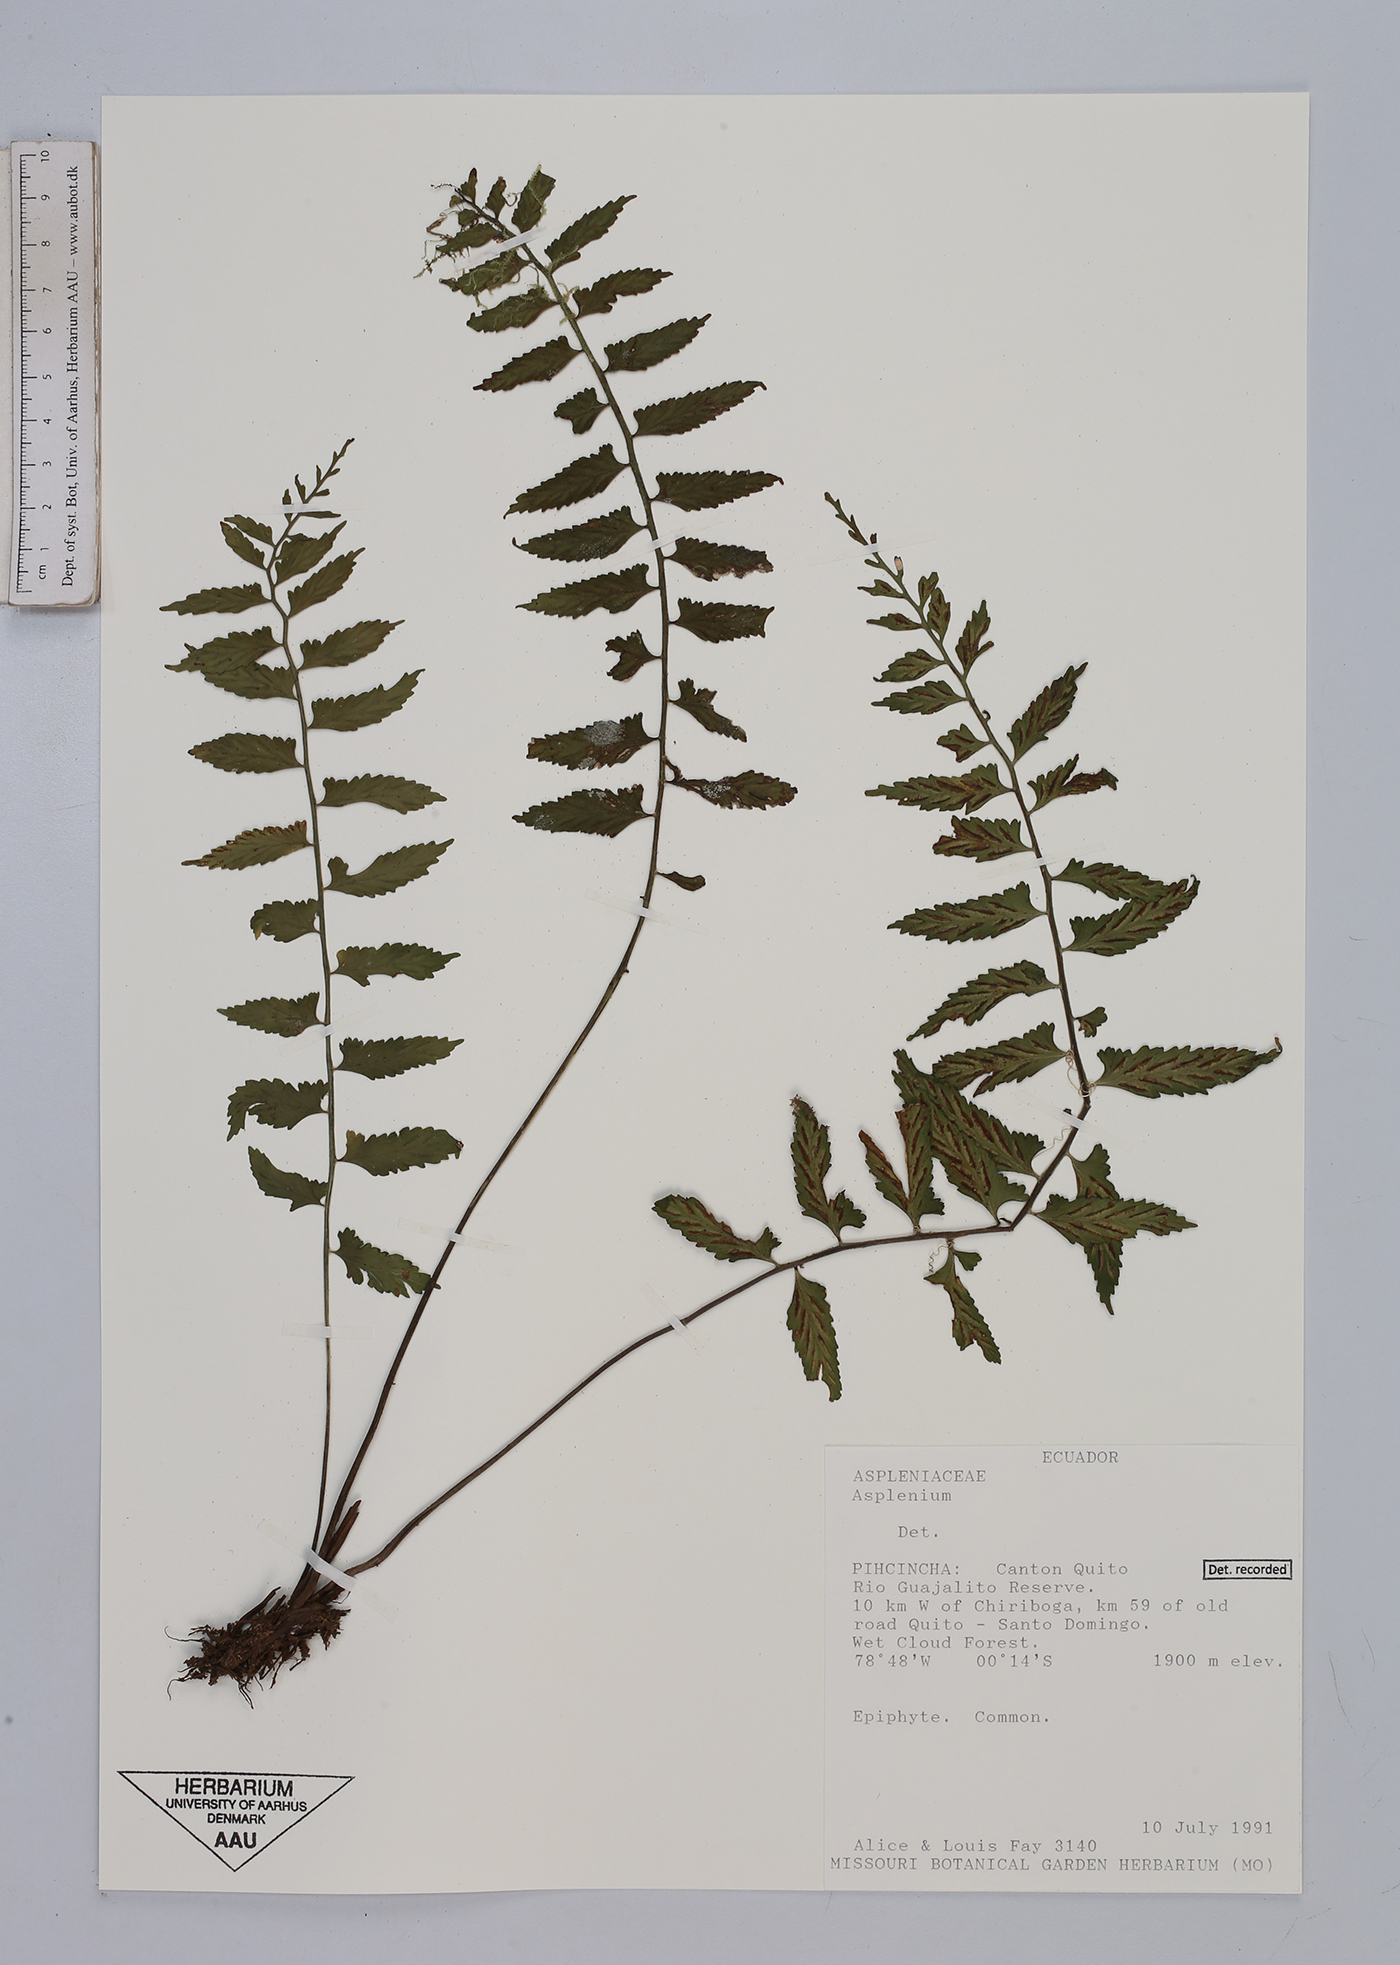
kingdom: Plantae
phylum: Tracheophyta
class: Polypodiopsida
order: Polypodiales
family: Aspleniaceae
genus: Asplenium
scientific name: Asplenium
